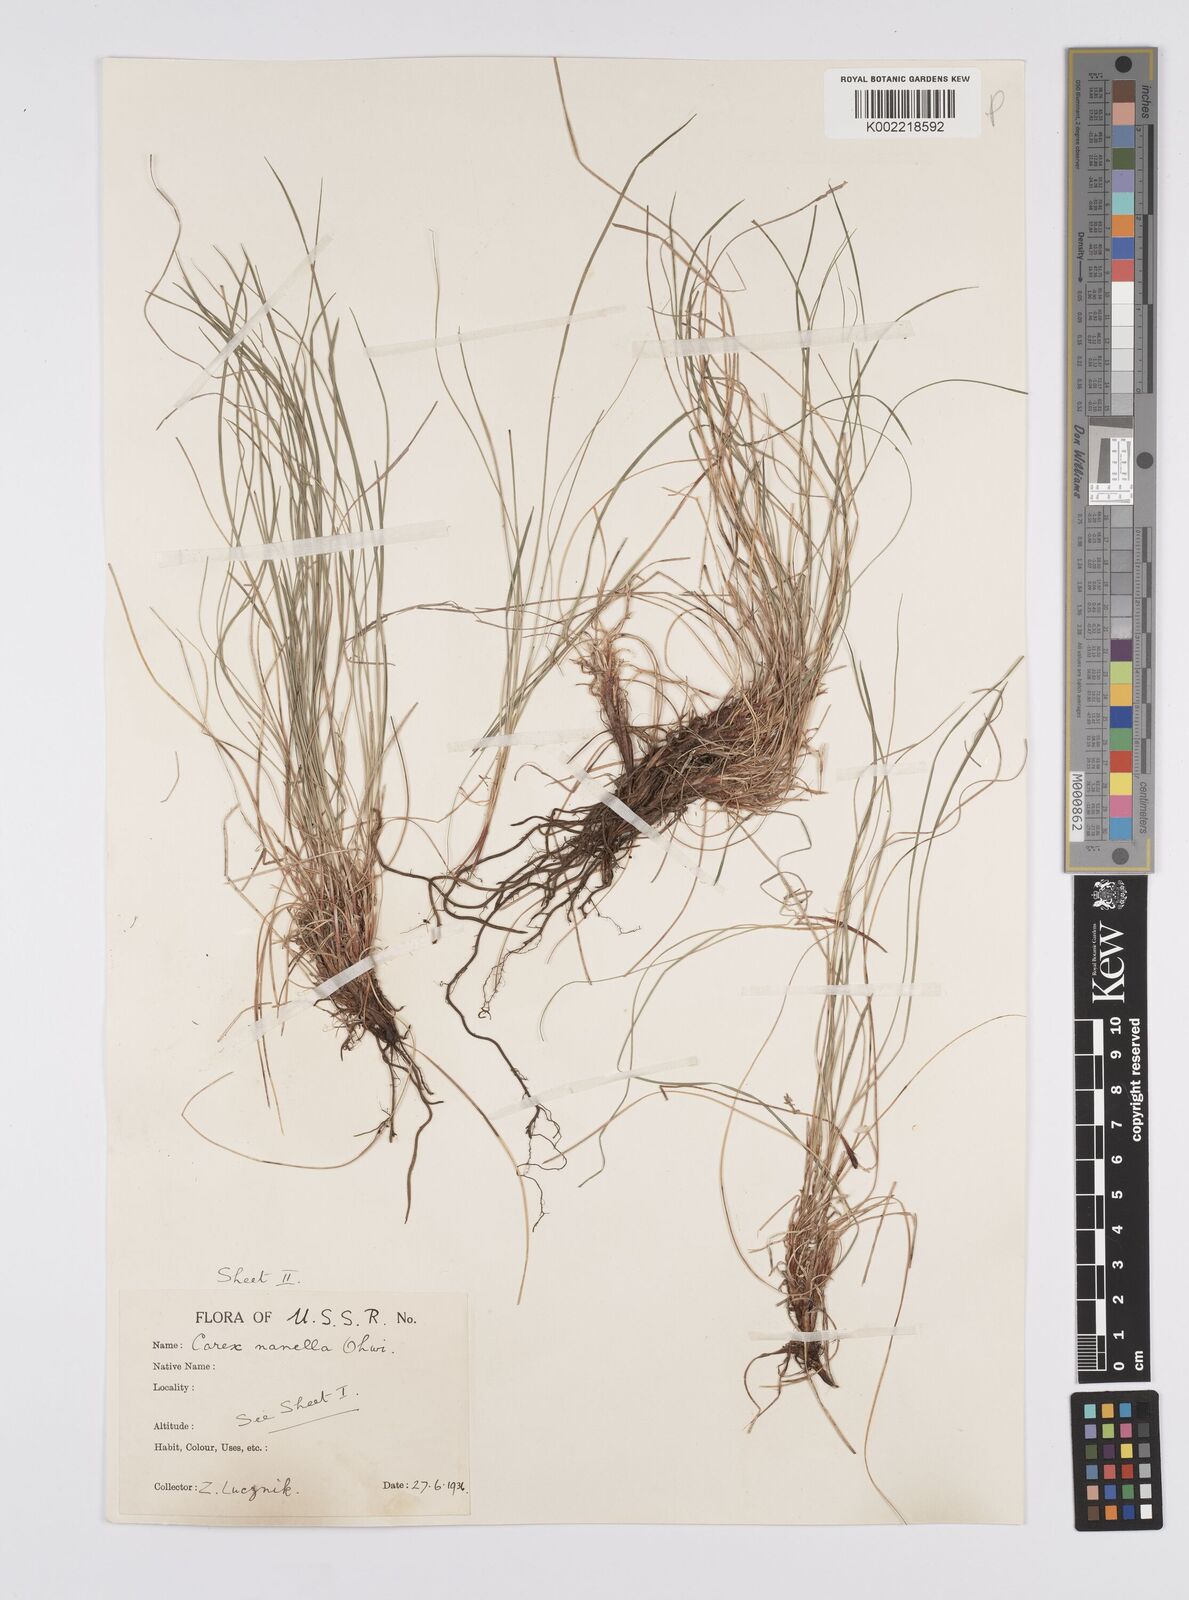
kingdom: Plantae
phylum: Tracheophyta
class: Liliopsida
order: Poales
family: Cyperaceae
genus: Carex
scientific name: Carex humilis
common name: Dwarf sedge
